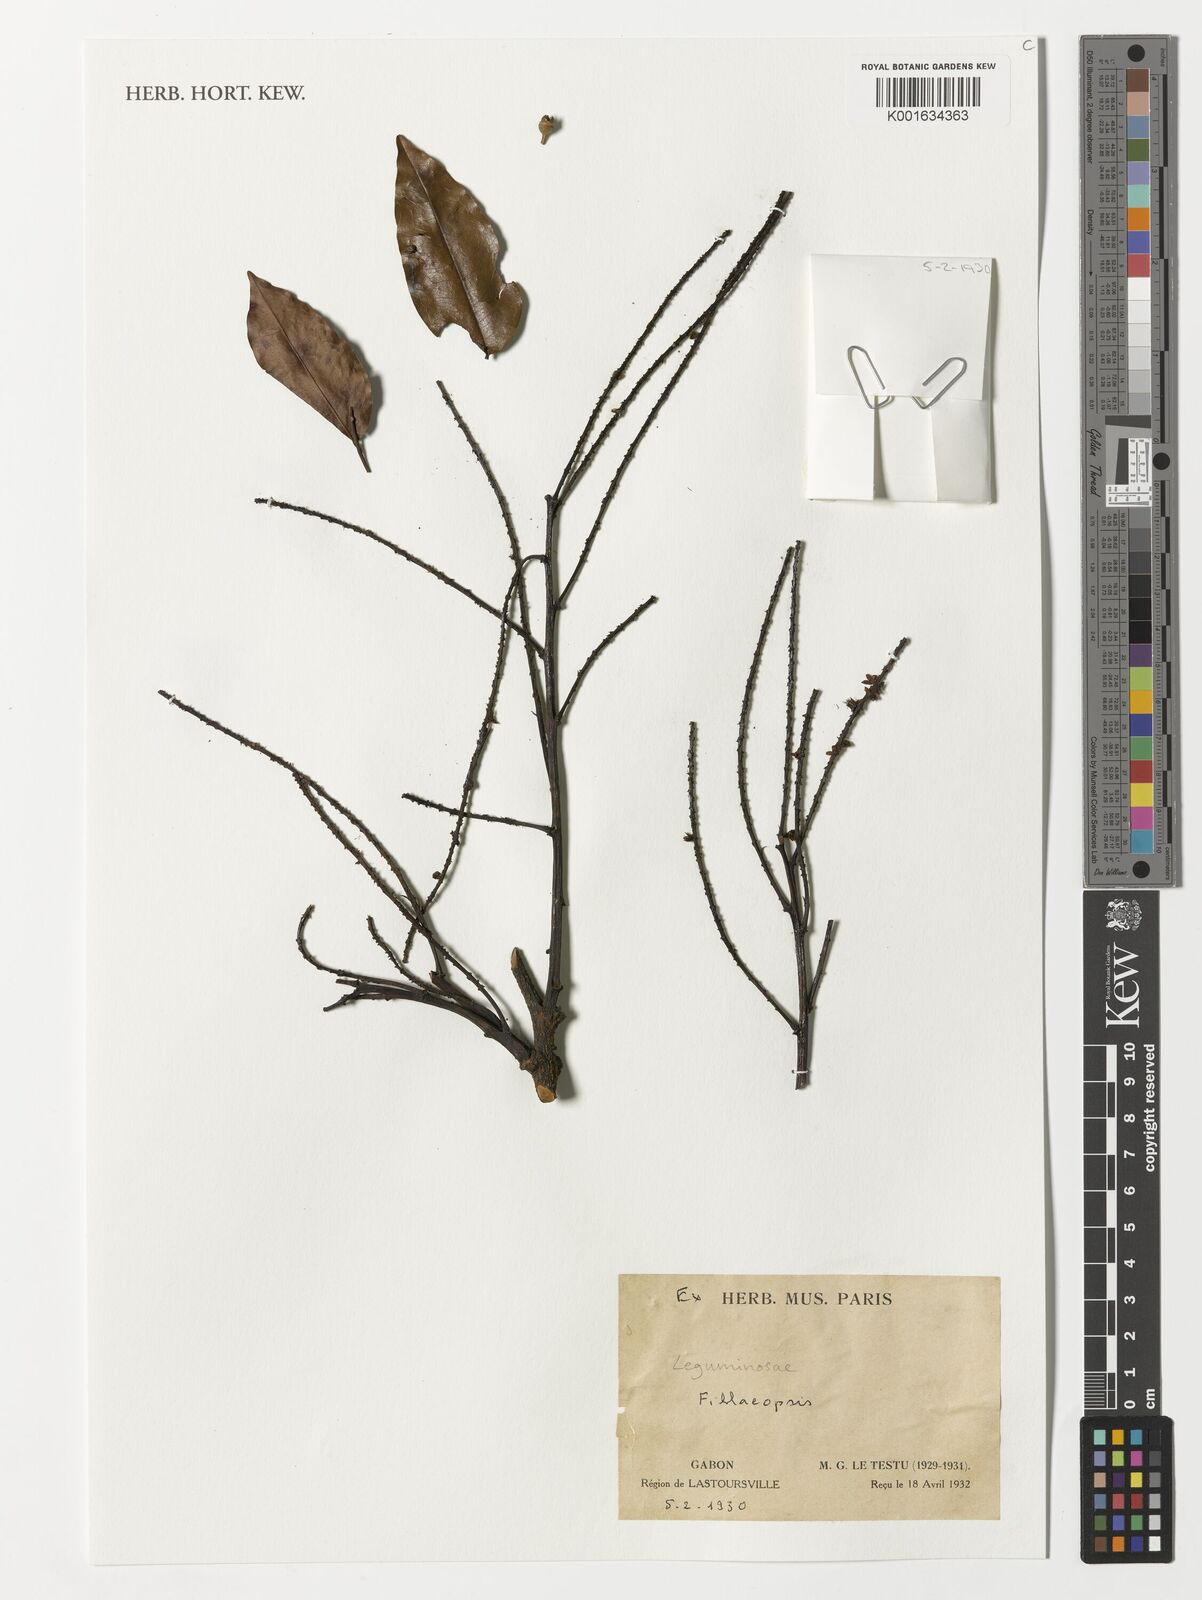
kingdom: Plantae
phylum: Tracheophyta
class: Magnoliopsida
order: Fabales
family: Fabaceae
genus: Fillaeopsis
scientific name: Fillaeopsis
